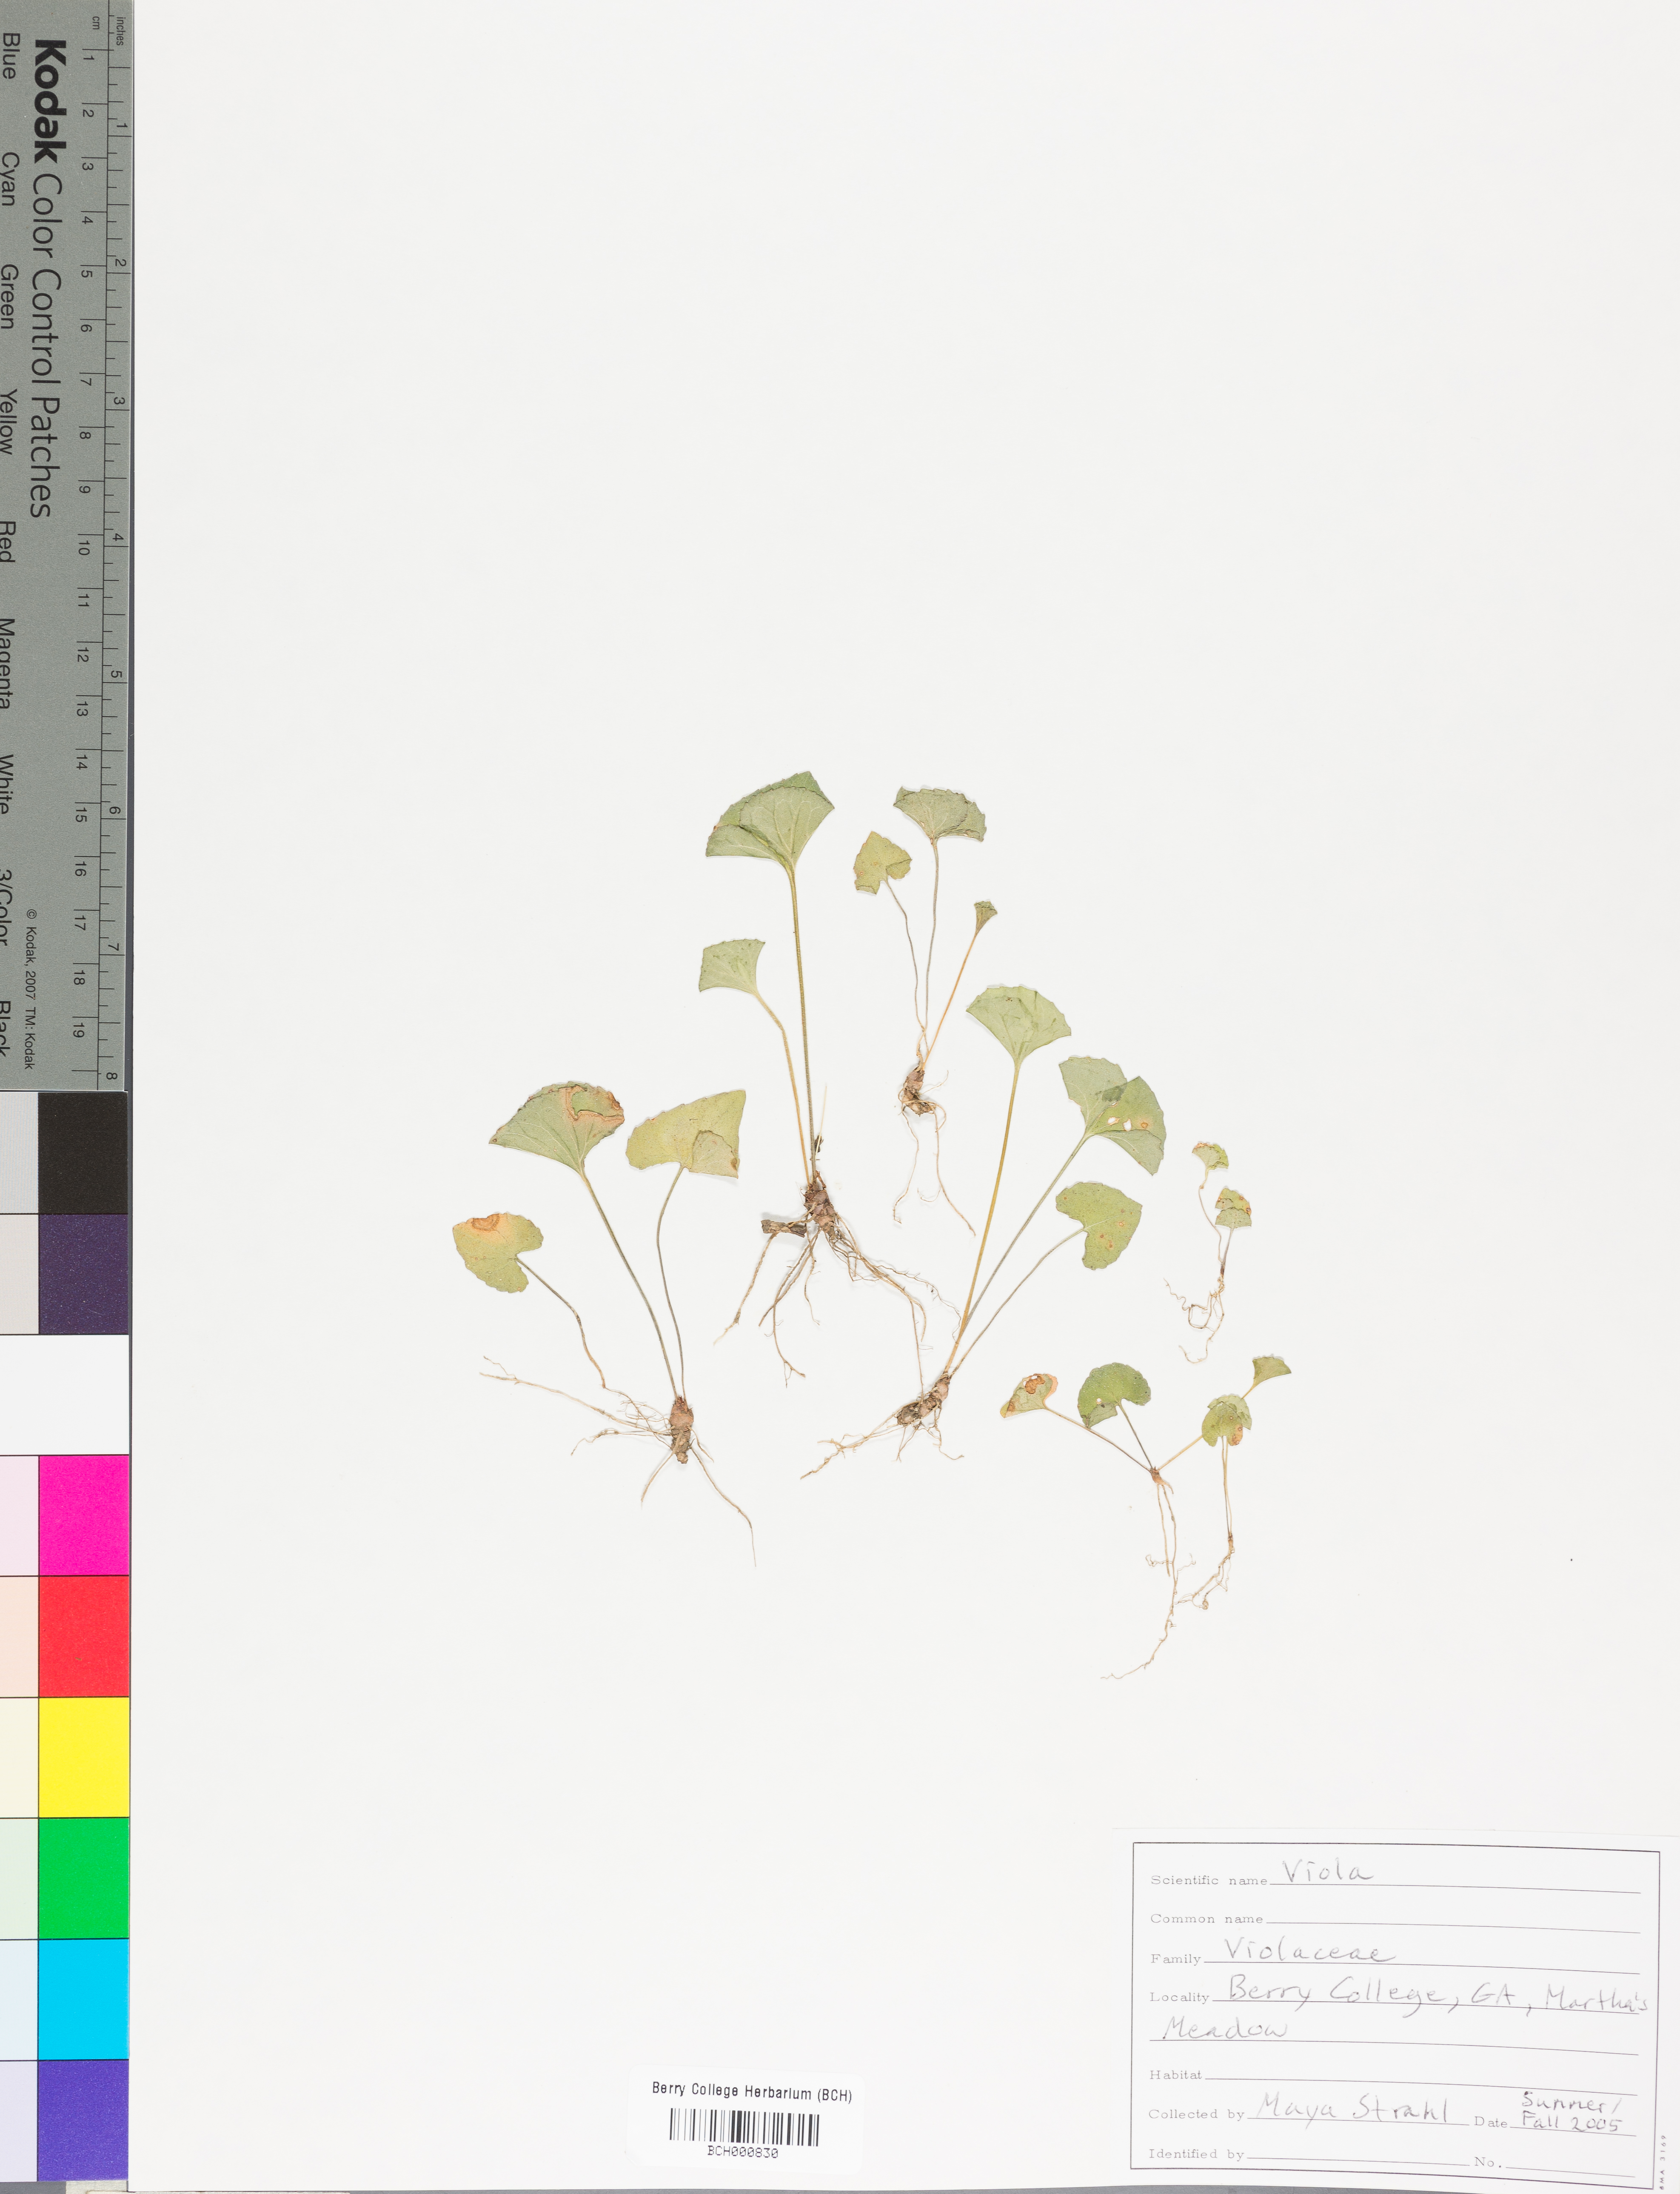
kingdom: Plantae
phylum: Tracheophyta
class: Magnoliopsida
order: Malpighiales
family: Violaceae
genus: Viola
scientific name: Viola
